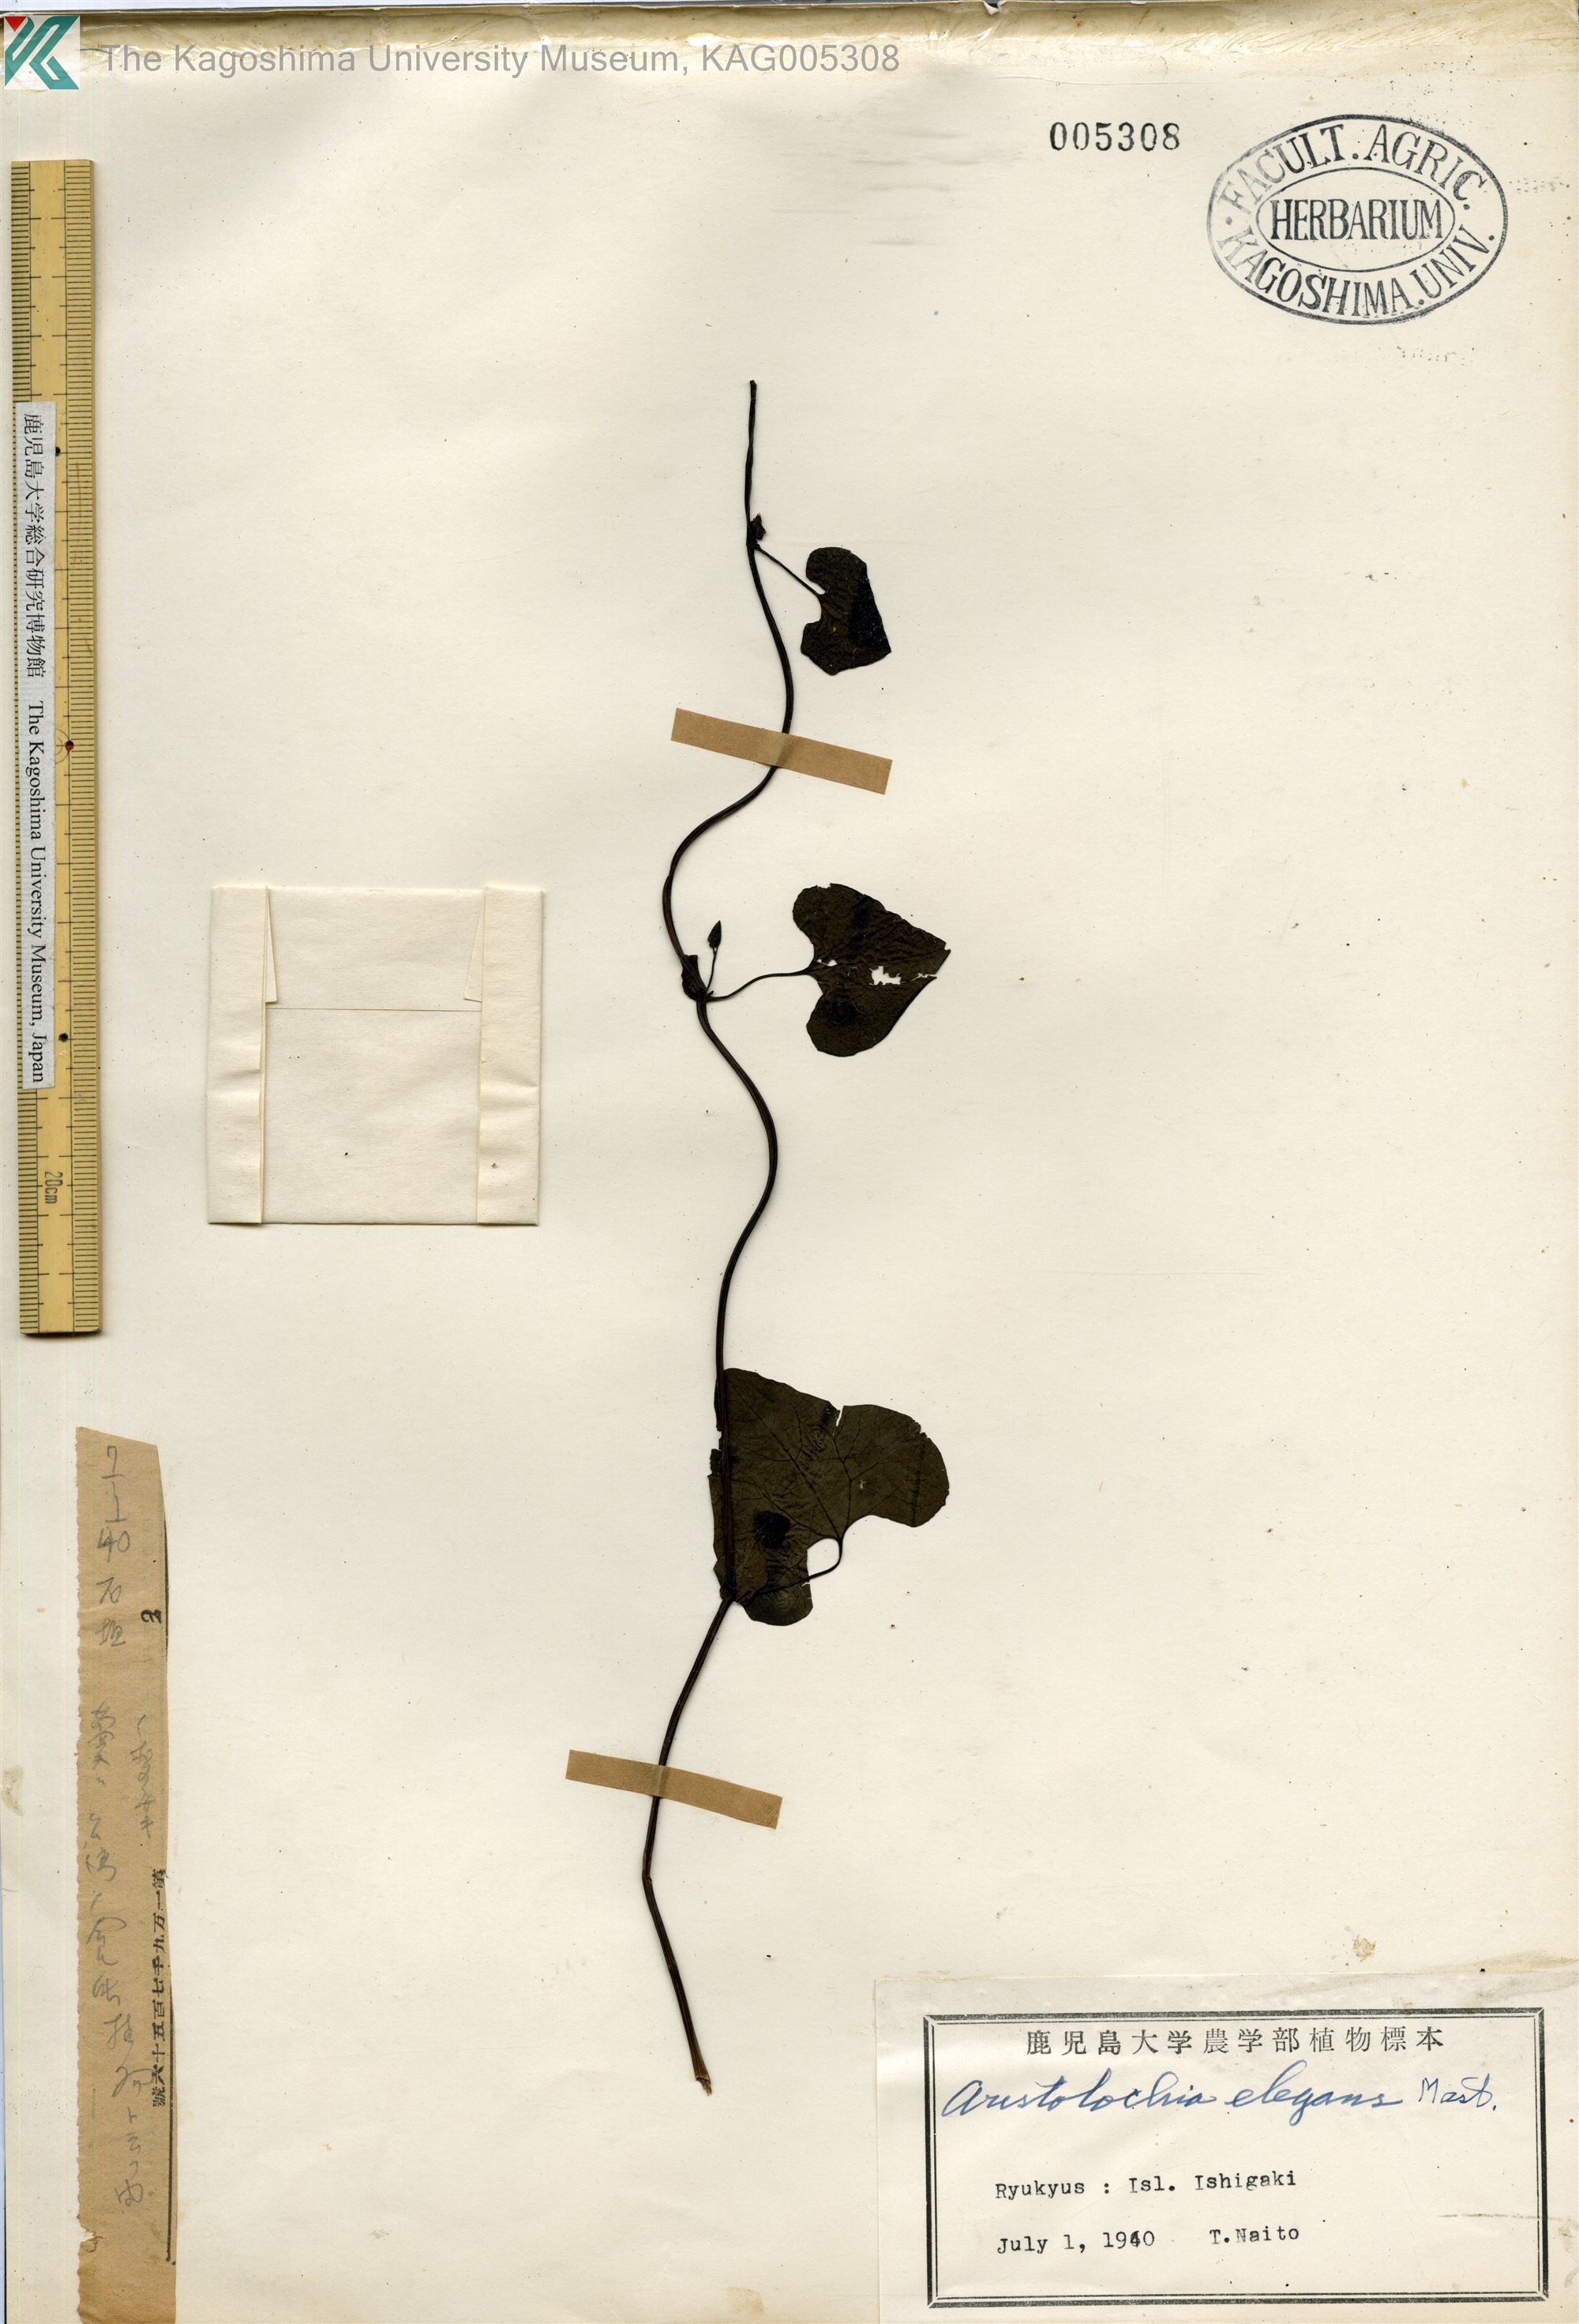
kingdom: Plantae
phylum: Tracheophyta
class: Magnoliopsida
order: Piperales
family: Aristolochiaceae
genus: Aristolochia
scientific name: Aristolochia littoralis
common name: Duck
